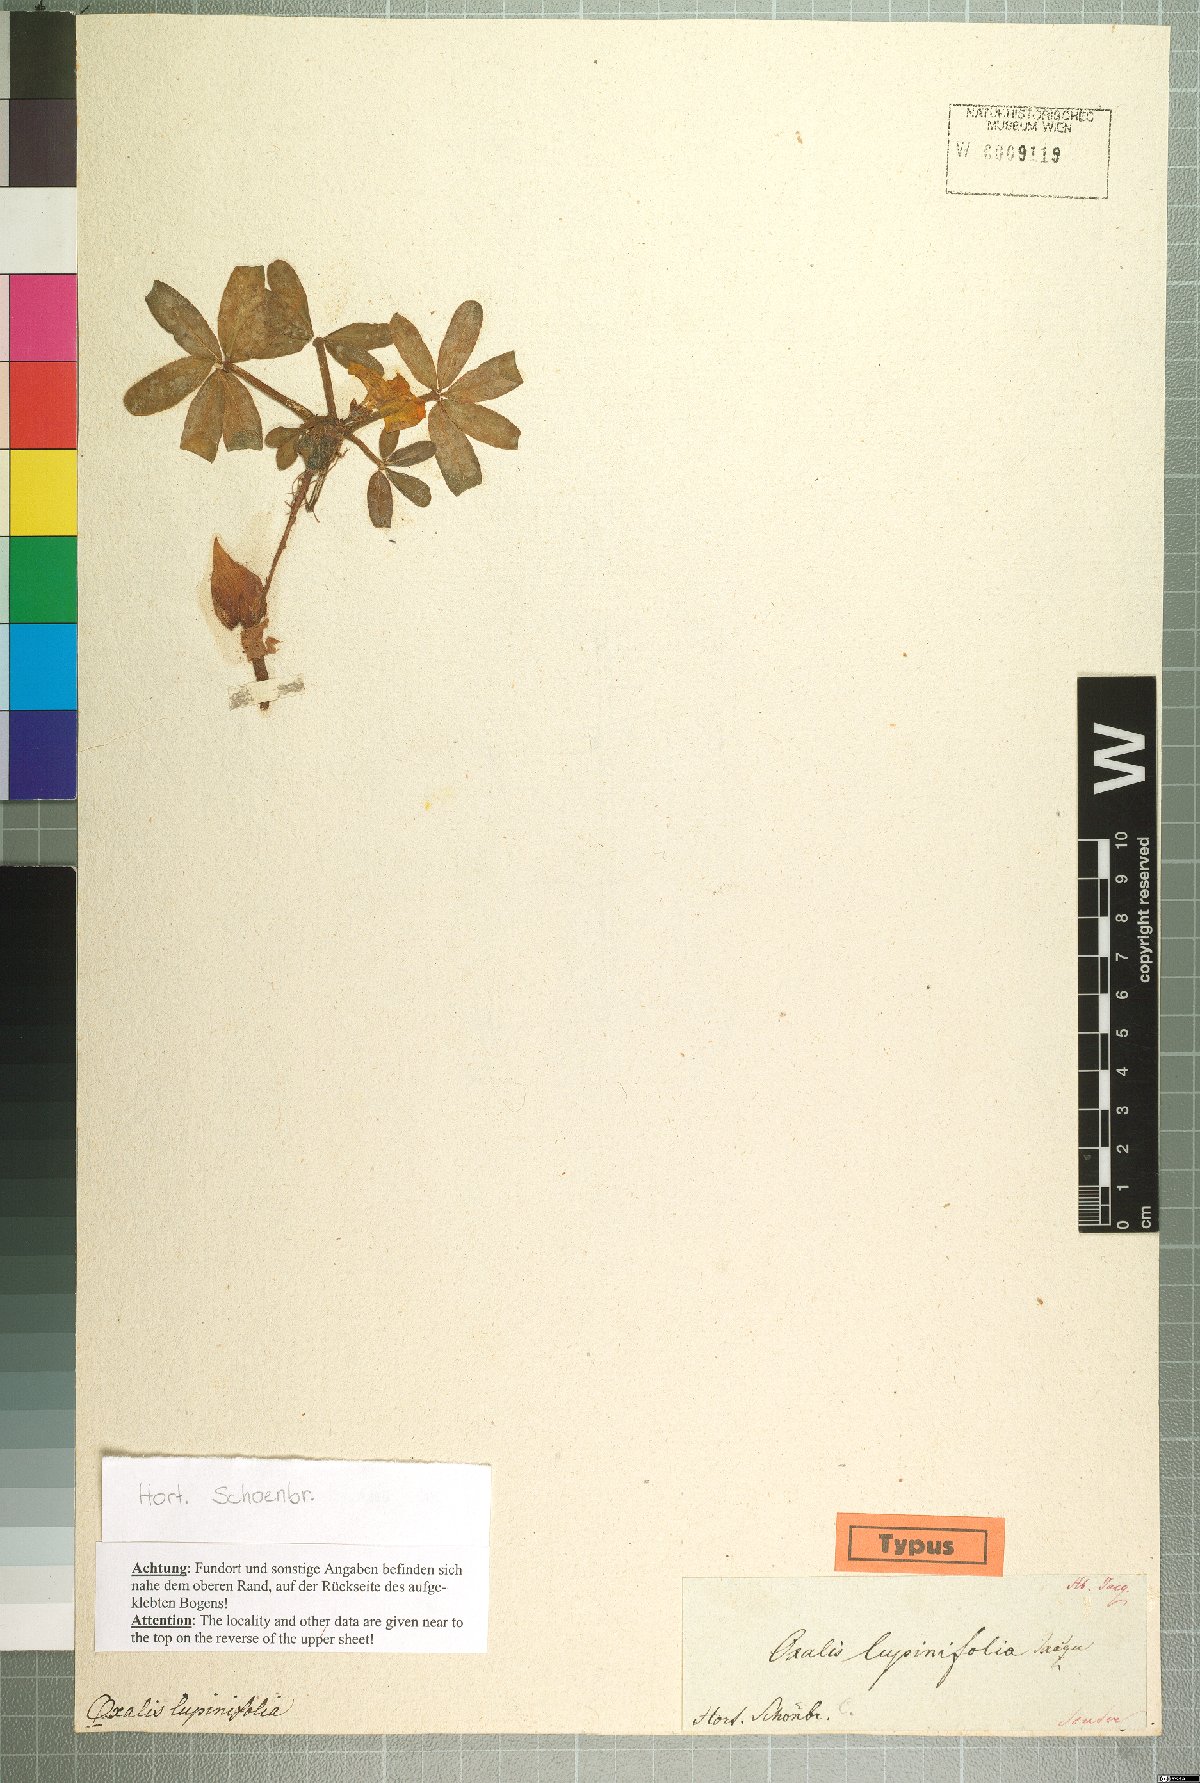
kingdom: Plantae
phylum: Tracheophyta
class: Magnoliopsida
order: Oxalidales
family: Oxalidaceae
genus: Oxalis
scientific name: Oxalis flava
